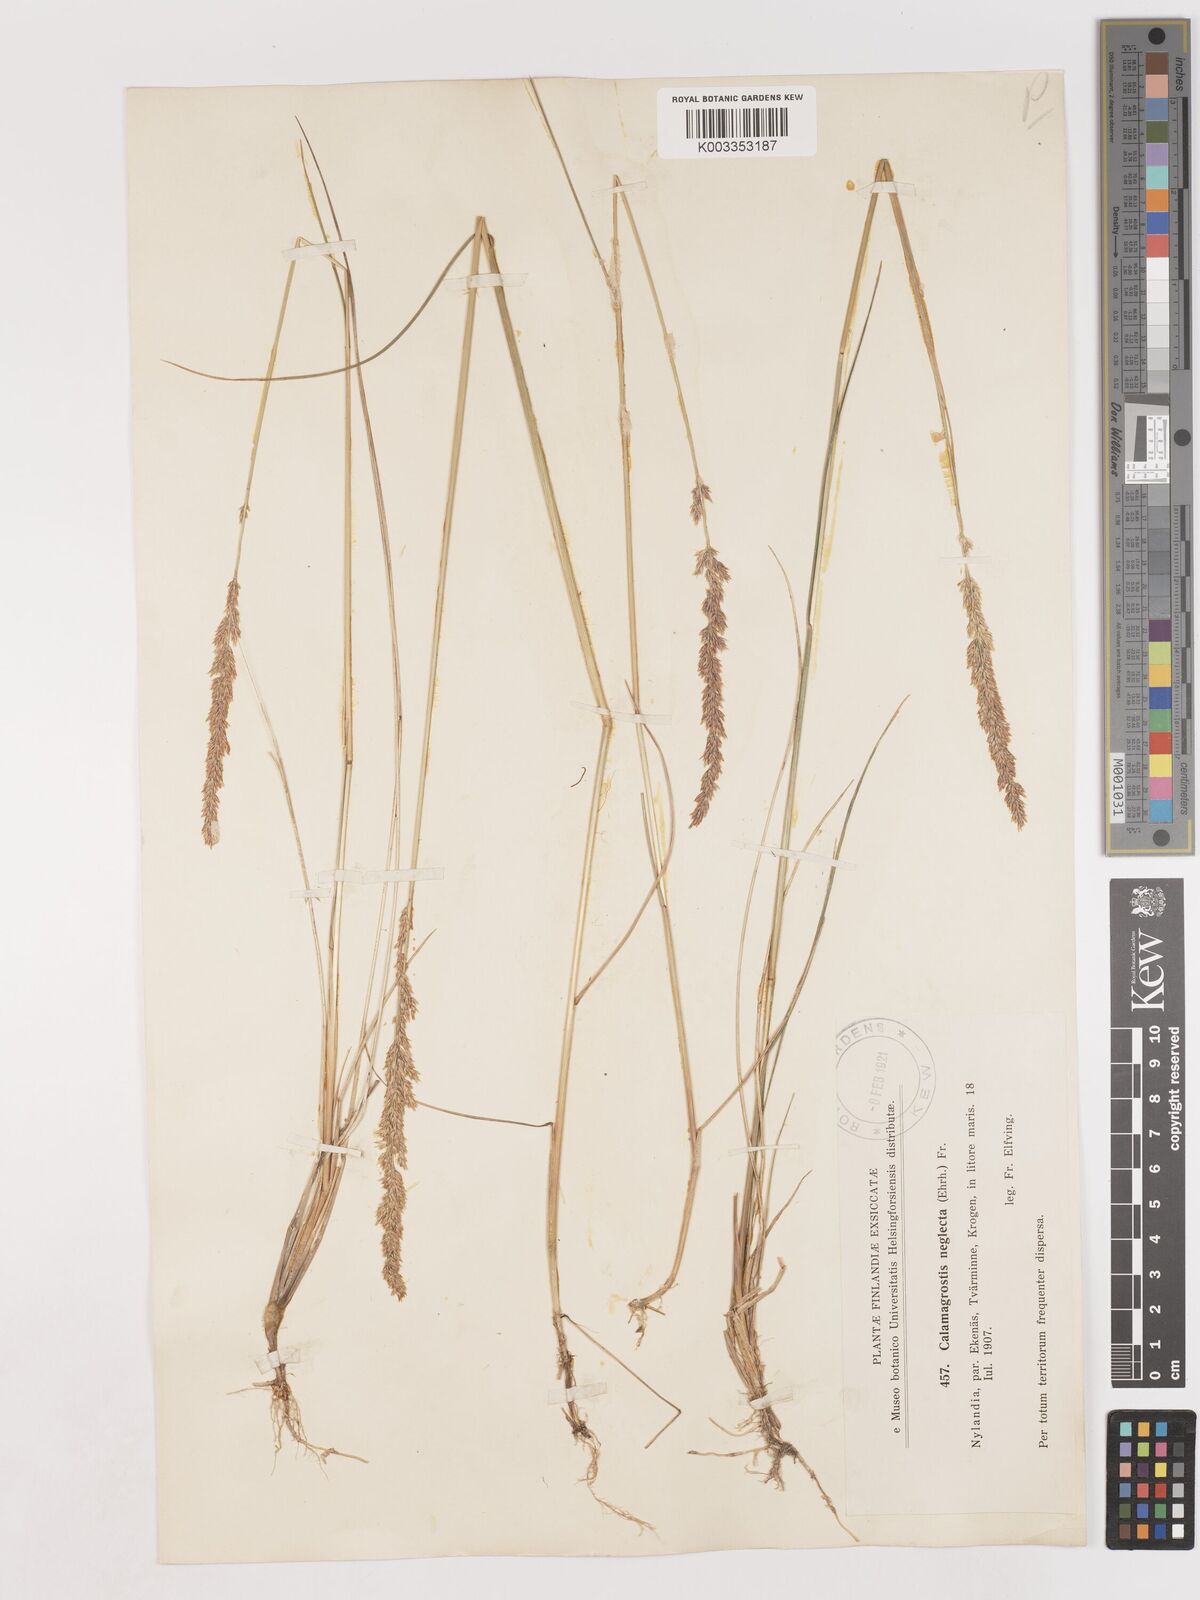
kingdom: Plantae
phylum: Tracheophyta
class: Liliopsida
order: Poales
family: Poaceae
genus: Cinnagrostis
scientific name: Cinnagrostis recta
